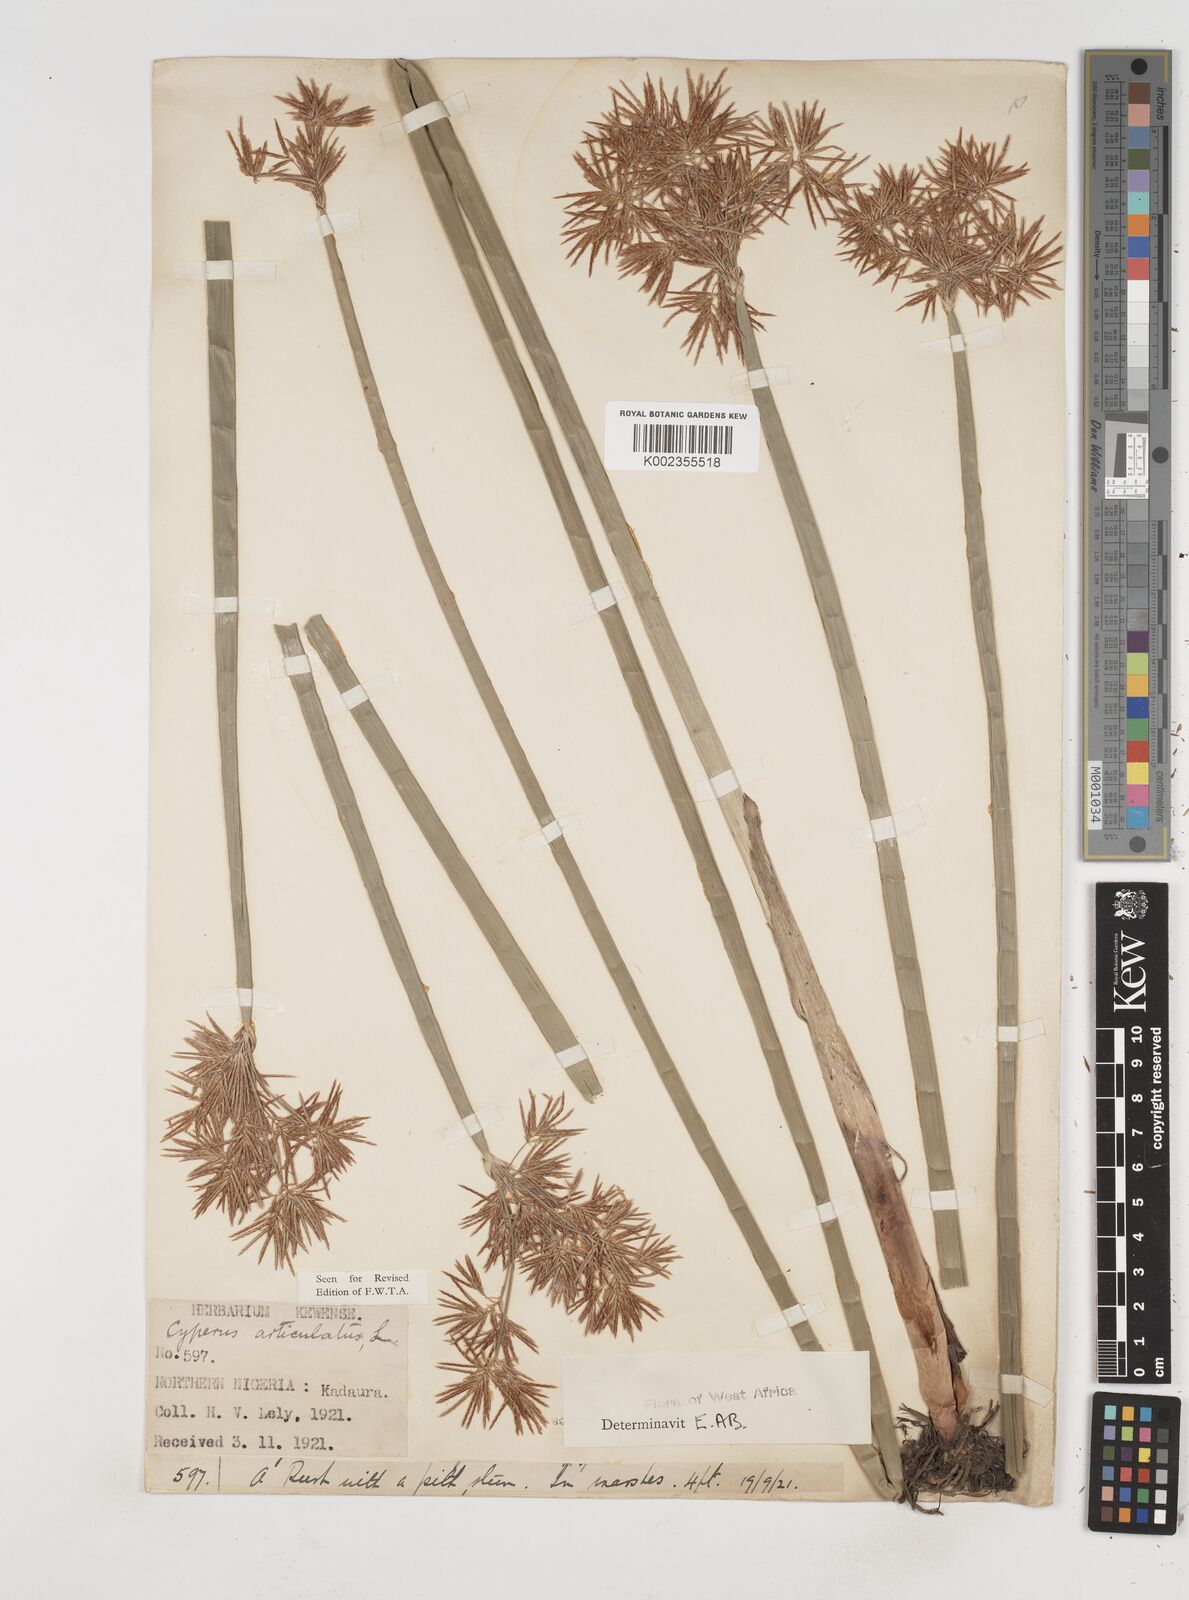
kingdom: Plantae
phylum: Tracheophyta
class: Liliopsida
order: Poales
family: Cyperaceae
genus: Cyperus
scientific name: Cyperus articulatus
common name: Jointed flatsedge
